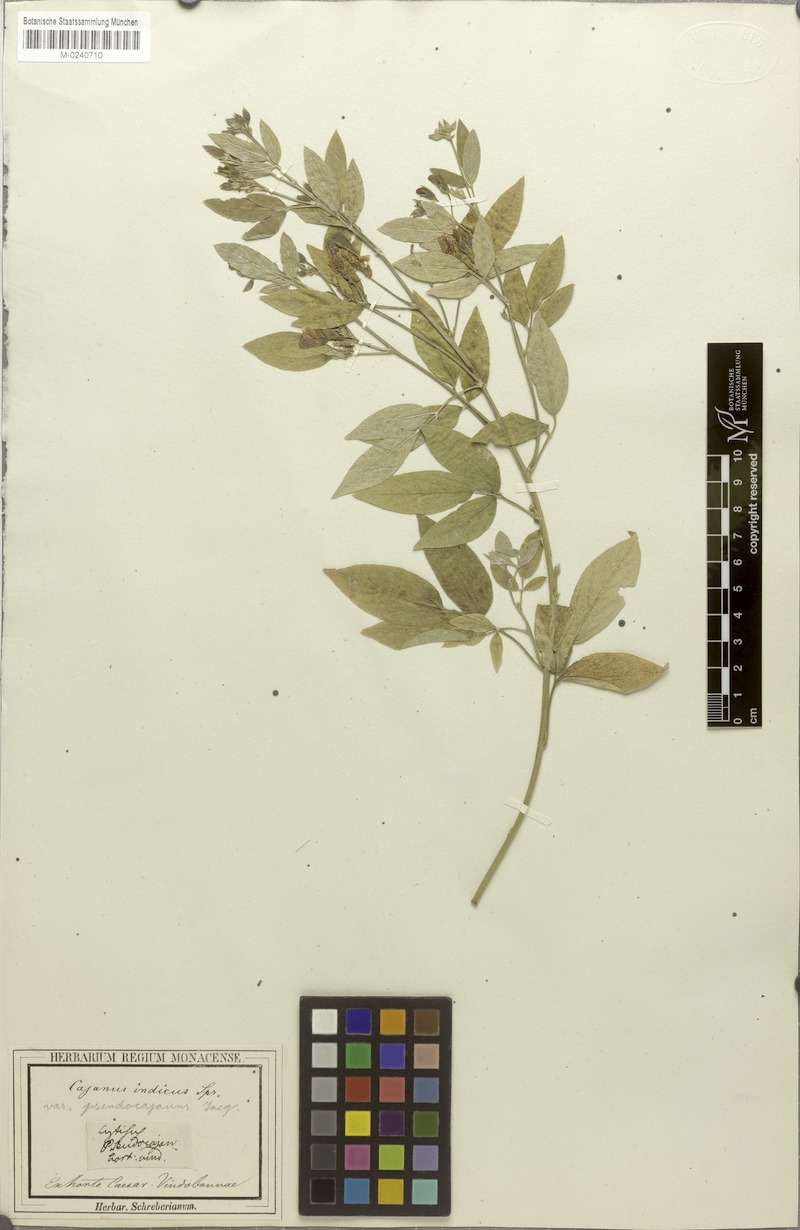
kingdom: Plantae
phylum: Tracheophyta
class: Magnoliopsida
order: Fabales
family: Fabaceae
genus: Cajanus
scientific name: Cajanus cajan
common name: Pigeonpea
